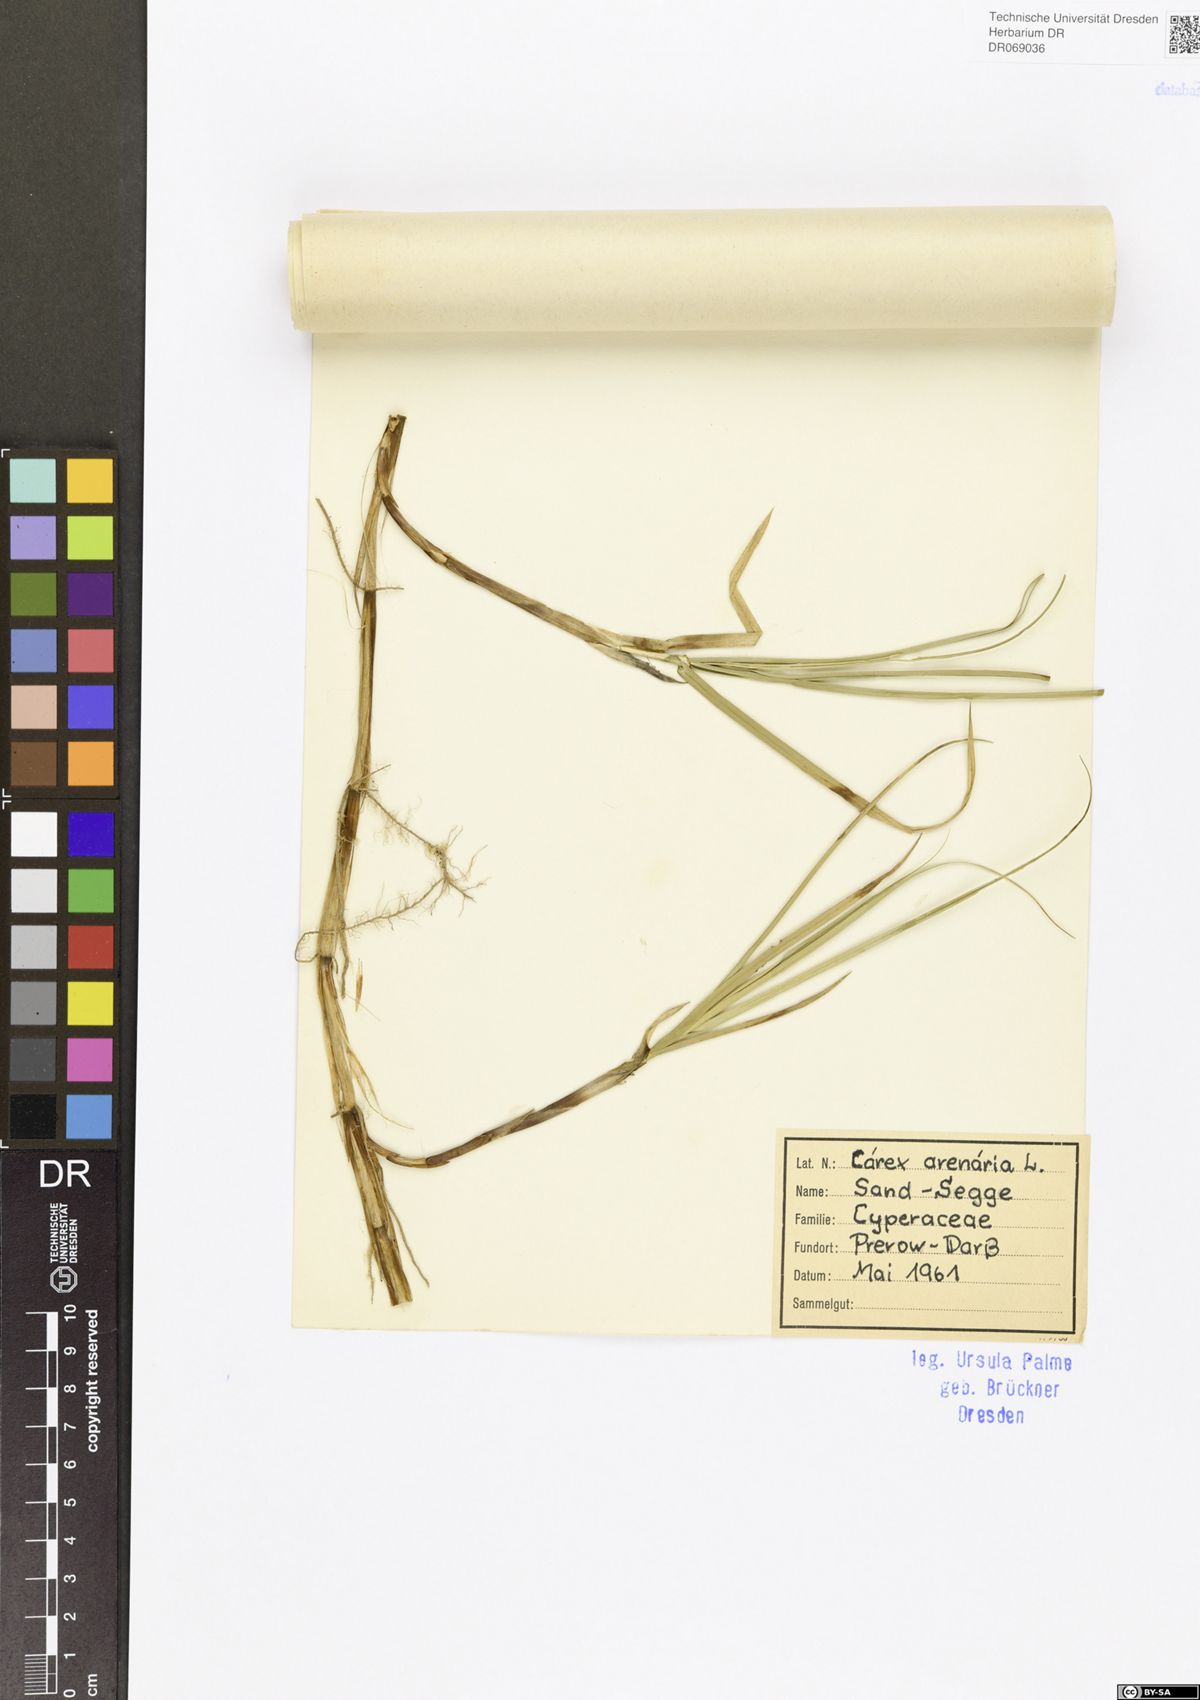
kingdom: Plantae
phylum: Tracheophyta
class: Liliopsida
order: Poales
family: Cyperaceae
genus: Carex
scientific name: Carex arenaria
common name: Sand sedge
